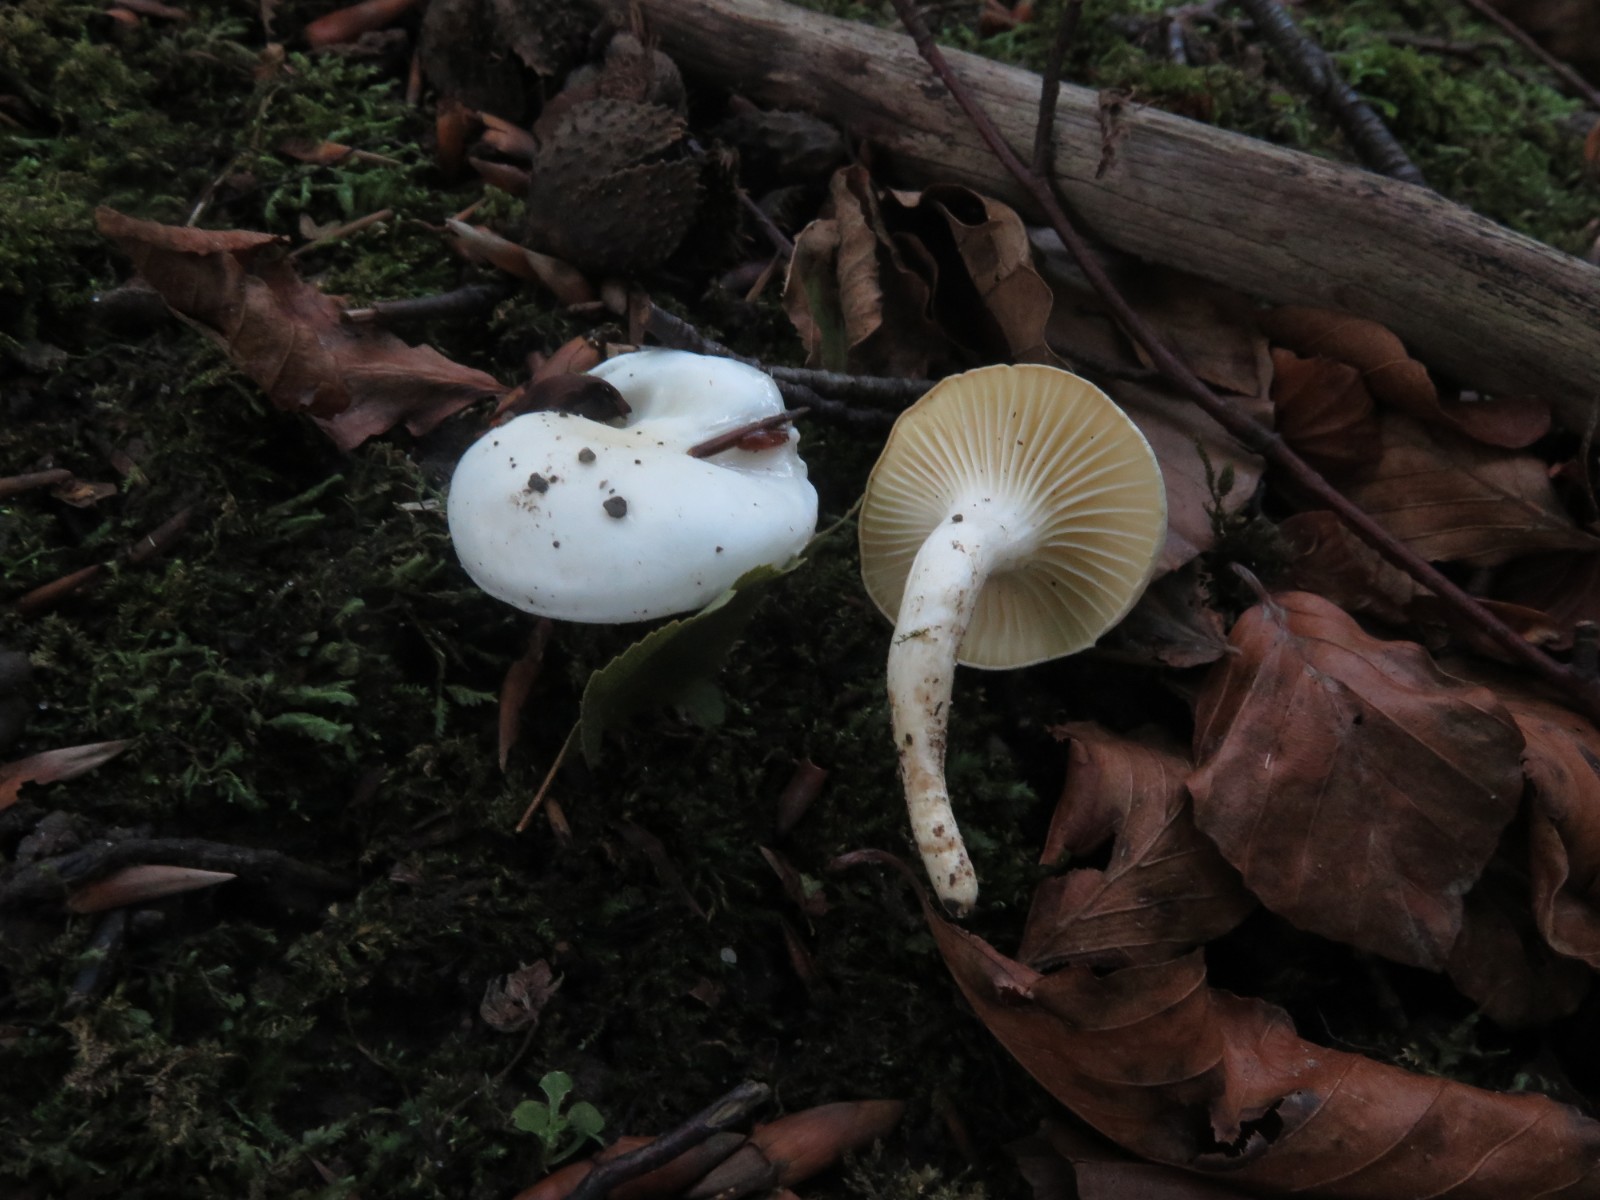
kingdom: Fungi
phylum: Basidiomycota
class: Agaricomycetes
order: Agaricales
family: Hygrophoraceae
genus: Hygrophorus
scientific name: Hygrophorus eburneus
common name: elfenbens-sneglehat
